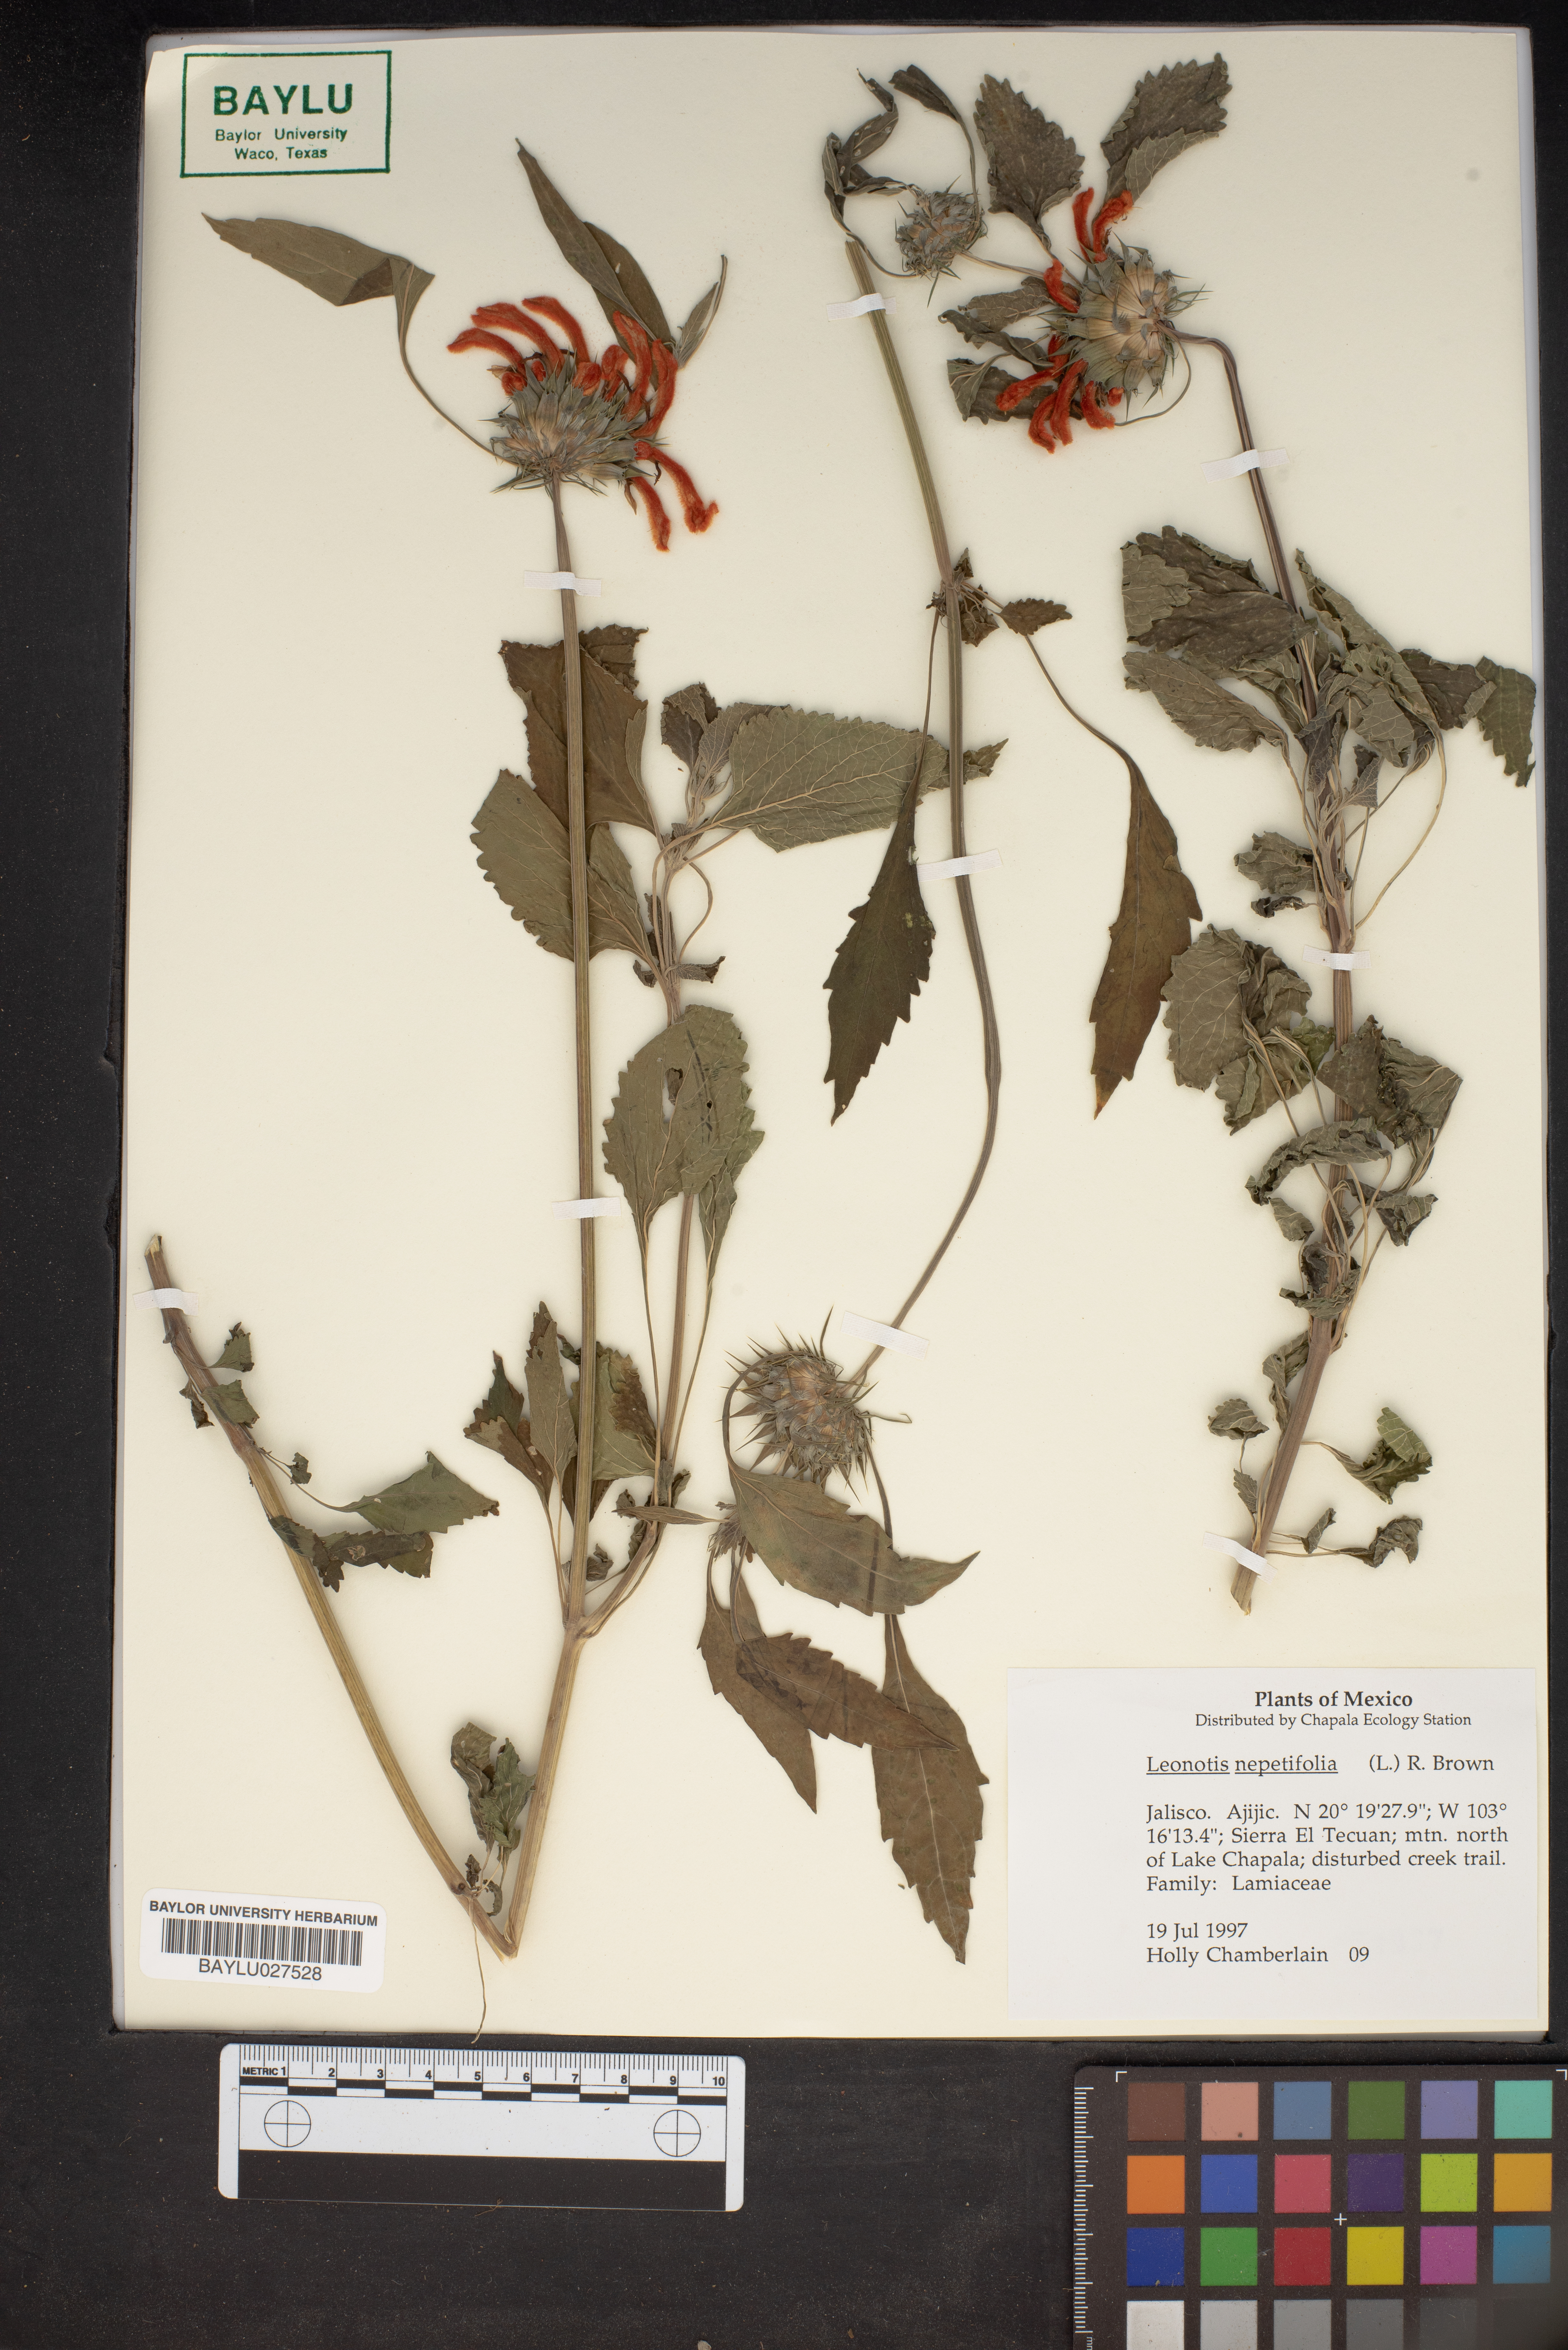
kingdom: Plantae
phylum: Tracheophyta
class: Magnoliopsida
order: Lamiales
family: Lamiaceae
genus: Leonotis
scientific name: Leonotis nepetifolia
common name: Christmas candlestick
